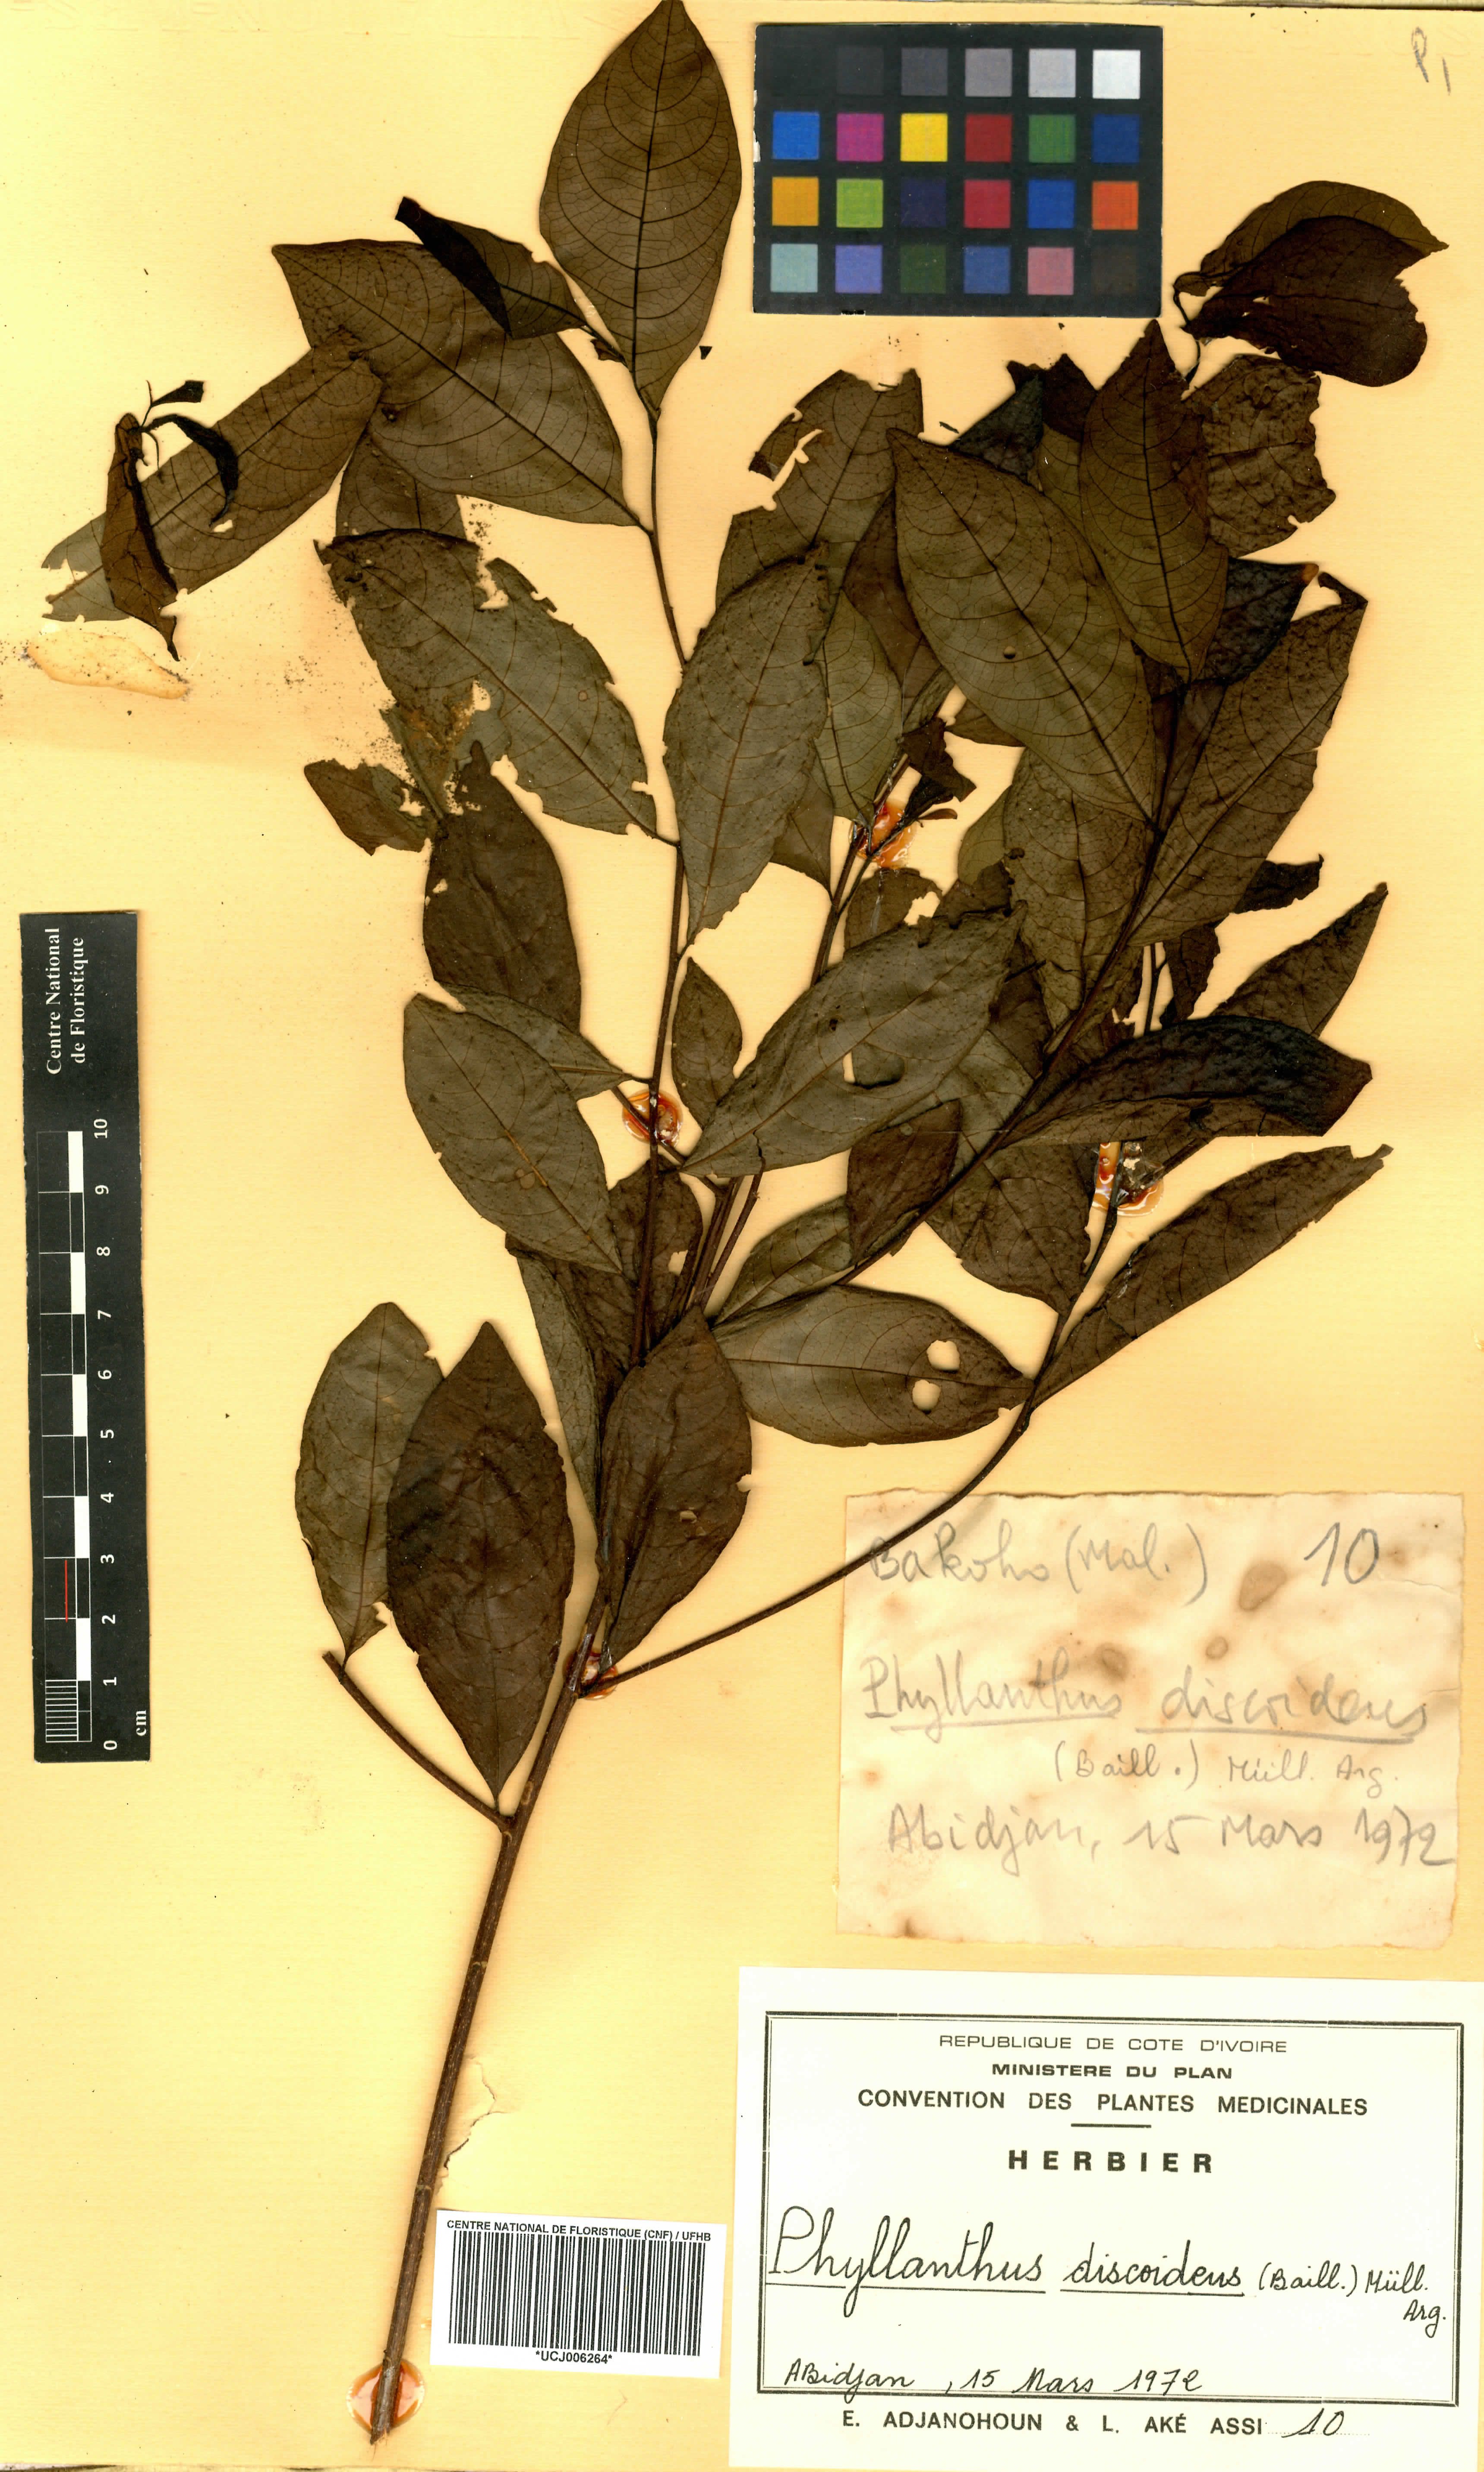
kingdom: Plantae
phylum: Tracheophyta
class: Magnoliopsida
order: Malpighiales
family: Phyllanthaceae
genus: Margaritaria
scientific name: Margaritaria discoidea
